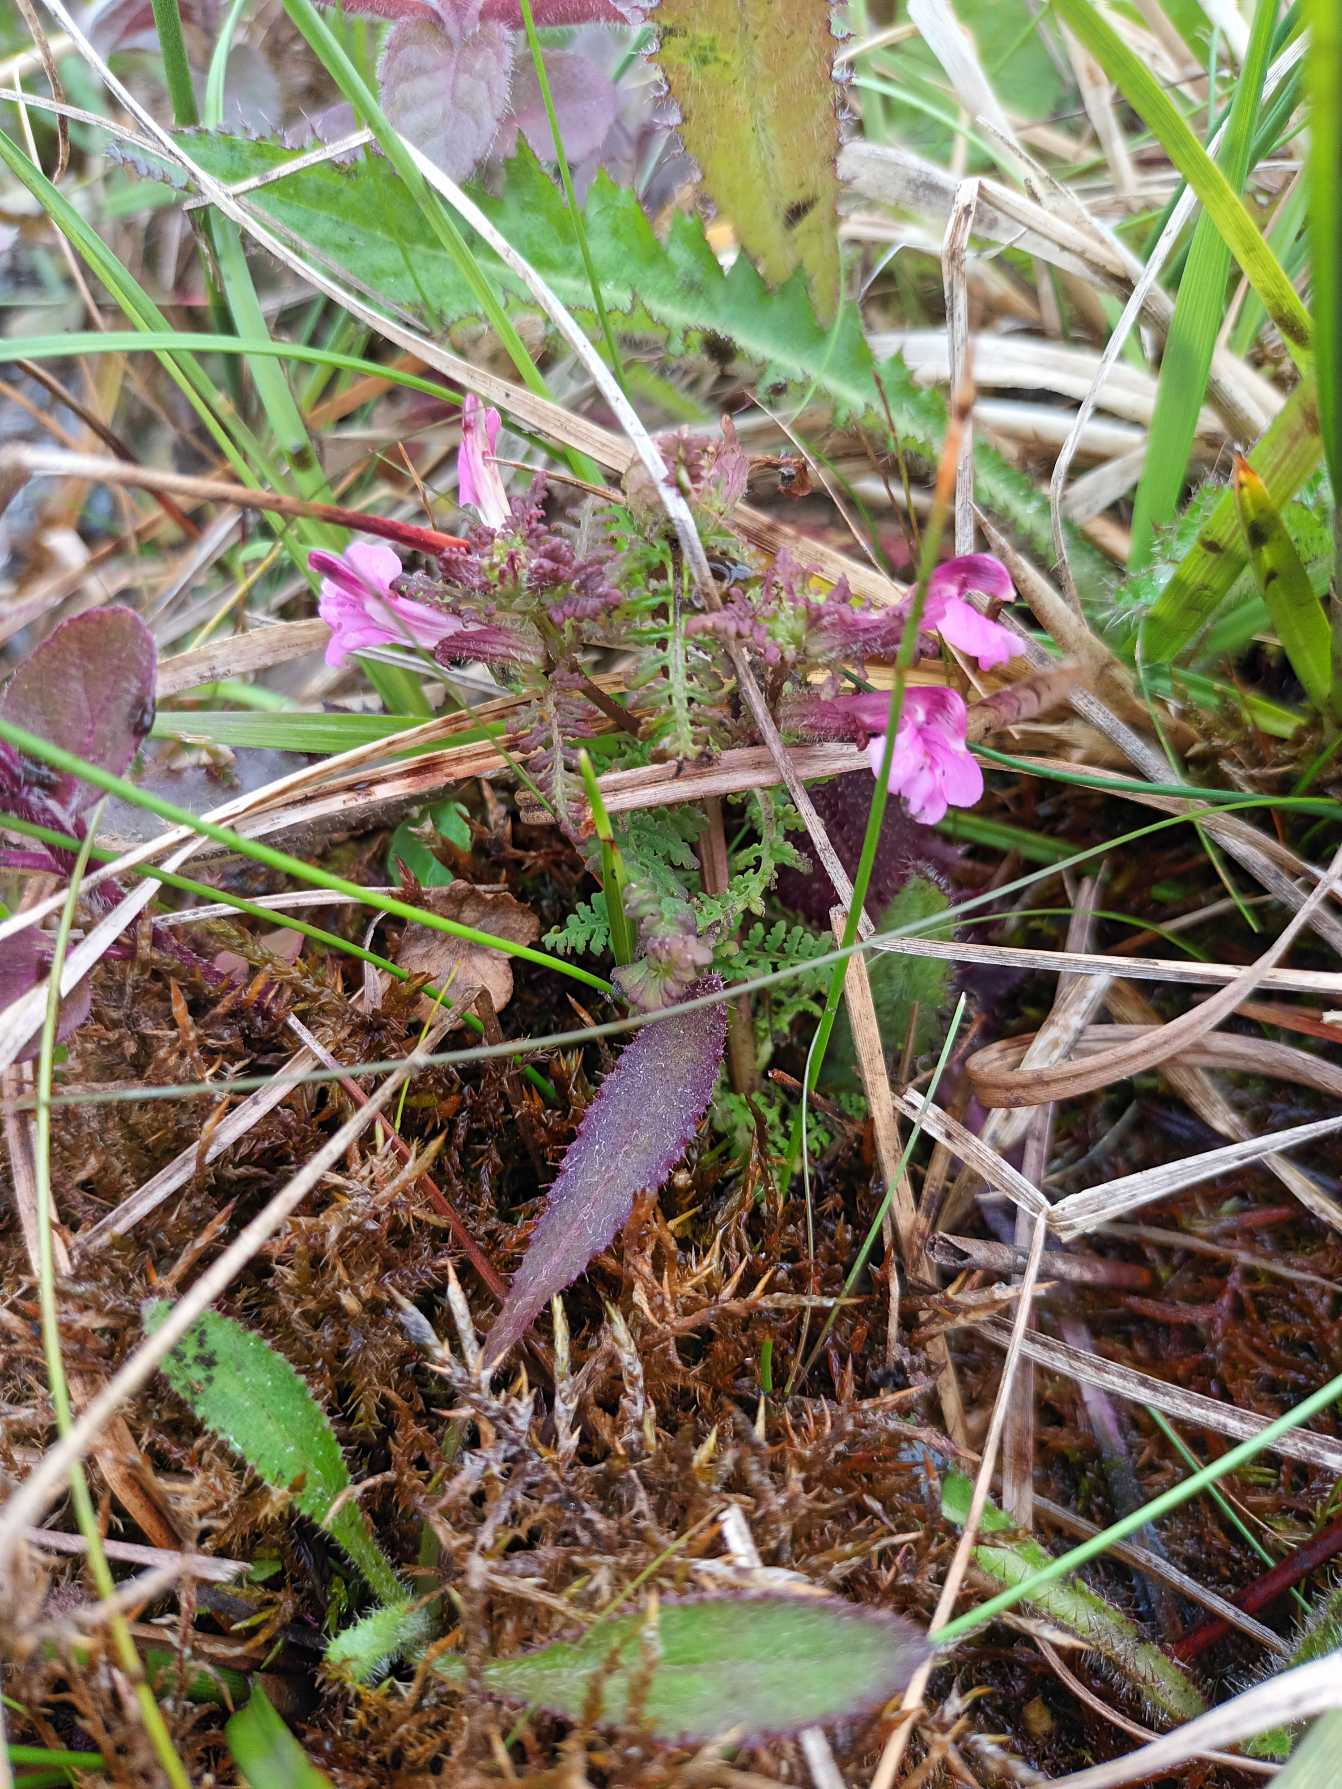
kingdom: Plantae
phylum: Tracheophyta
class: Magnoliopsida
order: Lamiales
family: Orobanchaceae
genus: Pedicularis
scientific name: Pedicularis palustris
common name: Eng-troldurt
